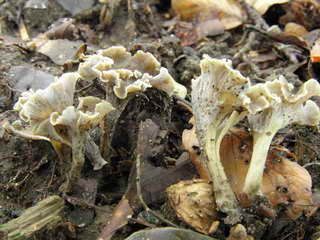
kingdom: Fungi
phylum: Basidiomycota
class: Agaricomycetes
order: Cantharellales
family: Hydnaceae
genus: Craterellus
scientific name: Craterellus undulatus
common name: liden kantarel
